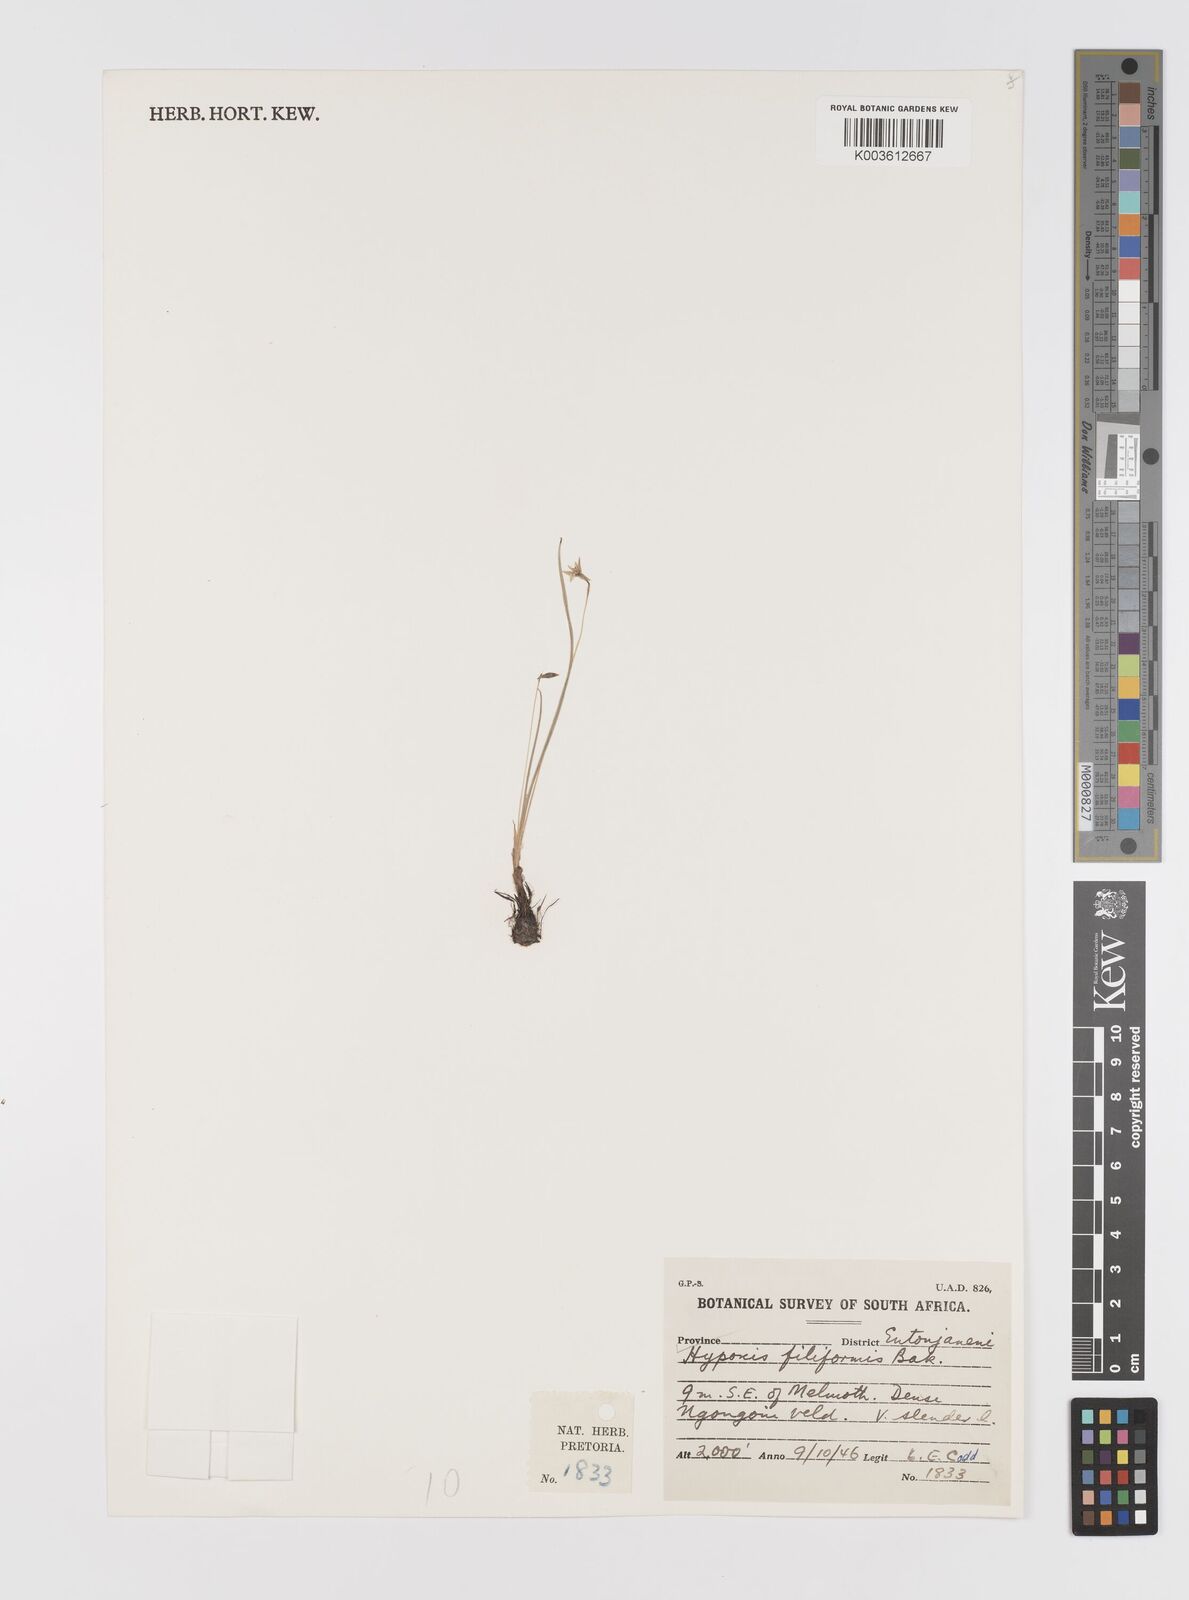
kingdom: Plantae
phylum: Tracheophyta
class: Liliopsida
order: Asparagales
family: Hypoxidaceae
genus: Hypoxis
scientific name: Hypoxis filiformis
